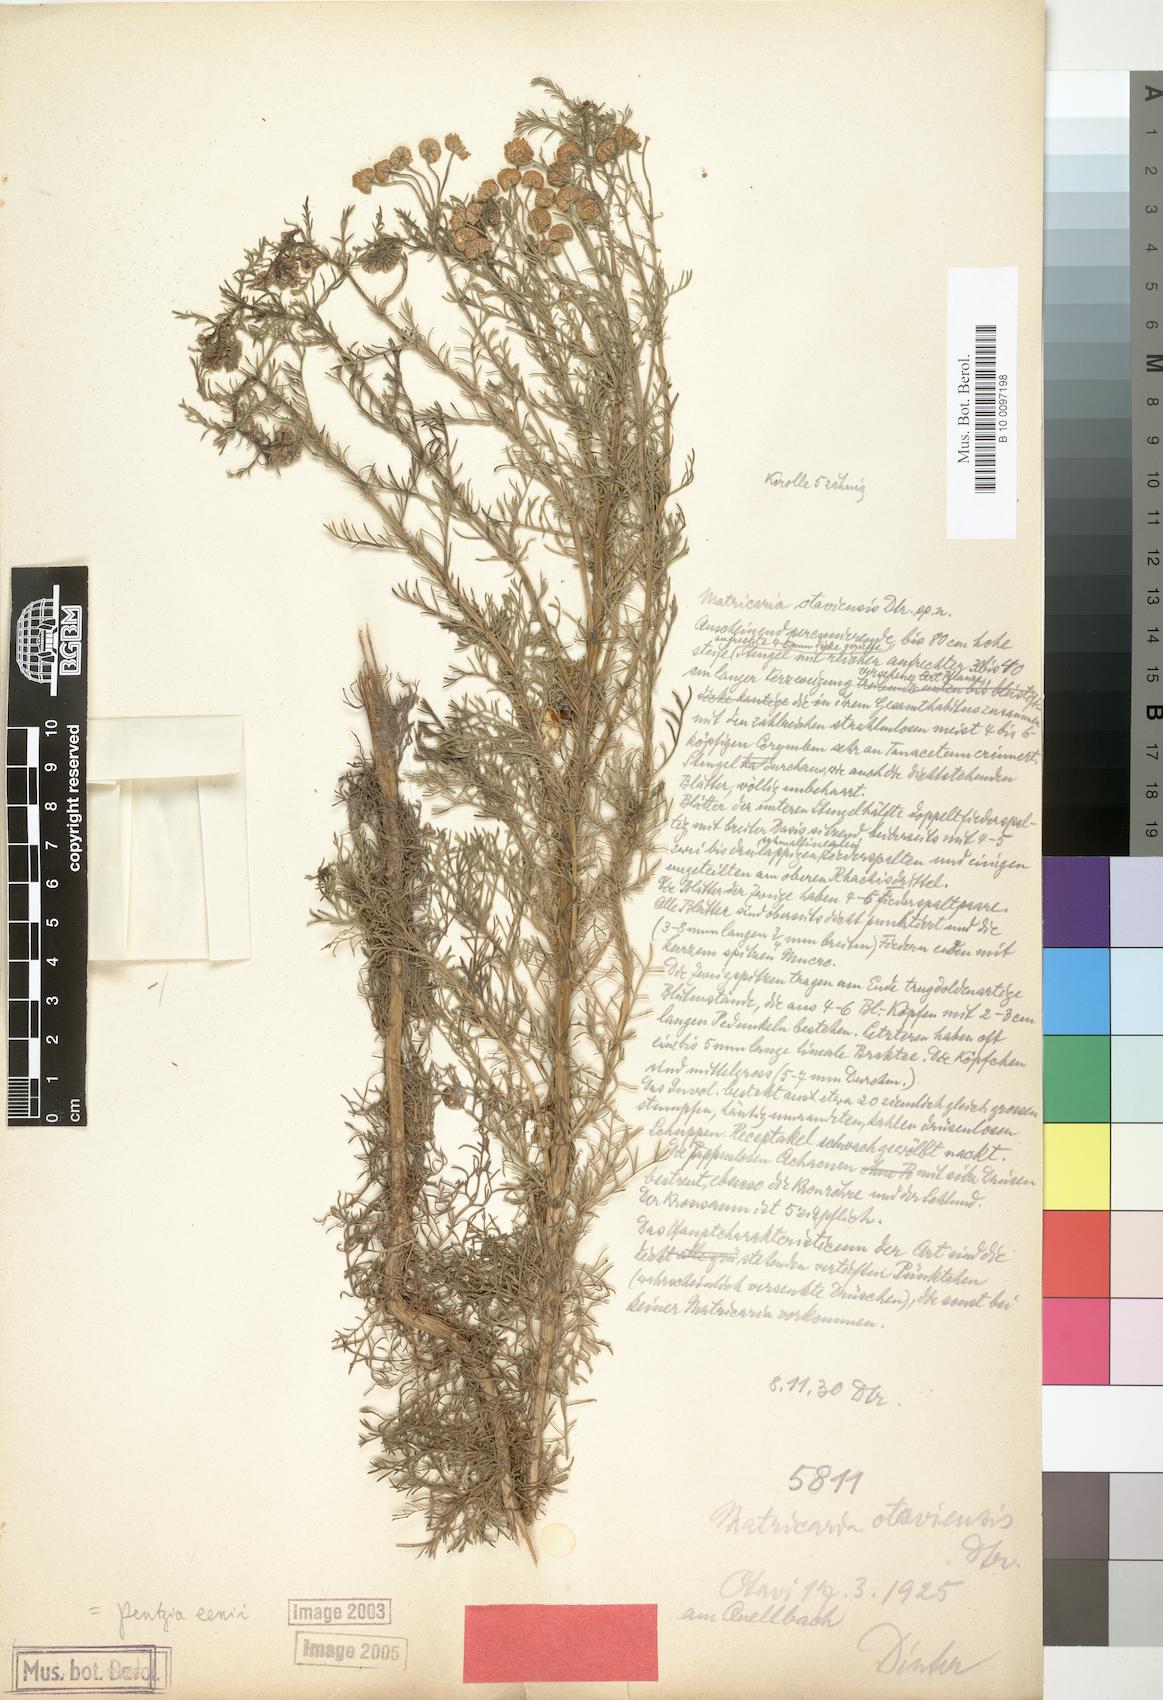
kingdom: Plantae
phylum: Tracheophyta
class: Magnoliopsida
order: Asterales
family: Asteraceae
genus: Pentzia
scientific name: Pentzia eenii
